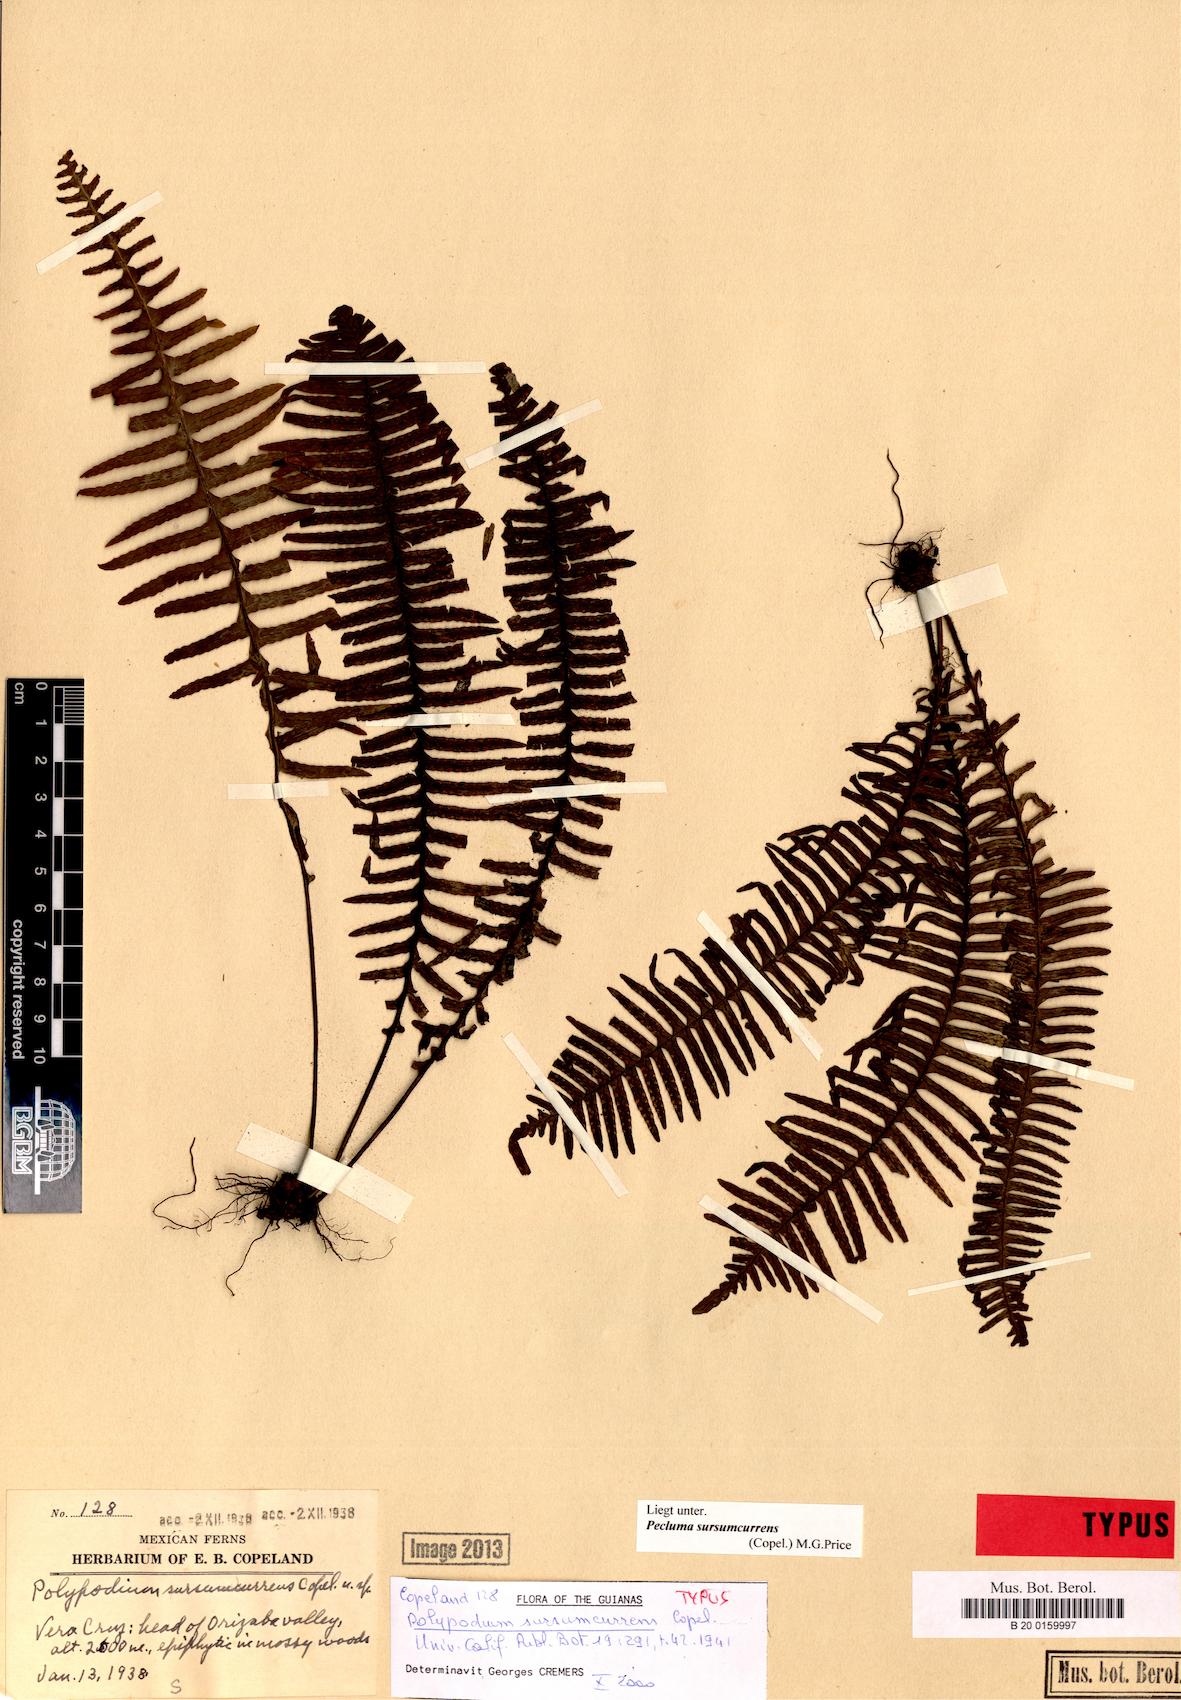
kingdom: Plantae
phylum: Tracheophyta
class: Polypodiopsida
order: Polypodiales
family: Polypodiaceae
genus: Pecluma
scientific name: Pecluma sursumcurrens
